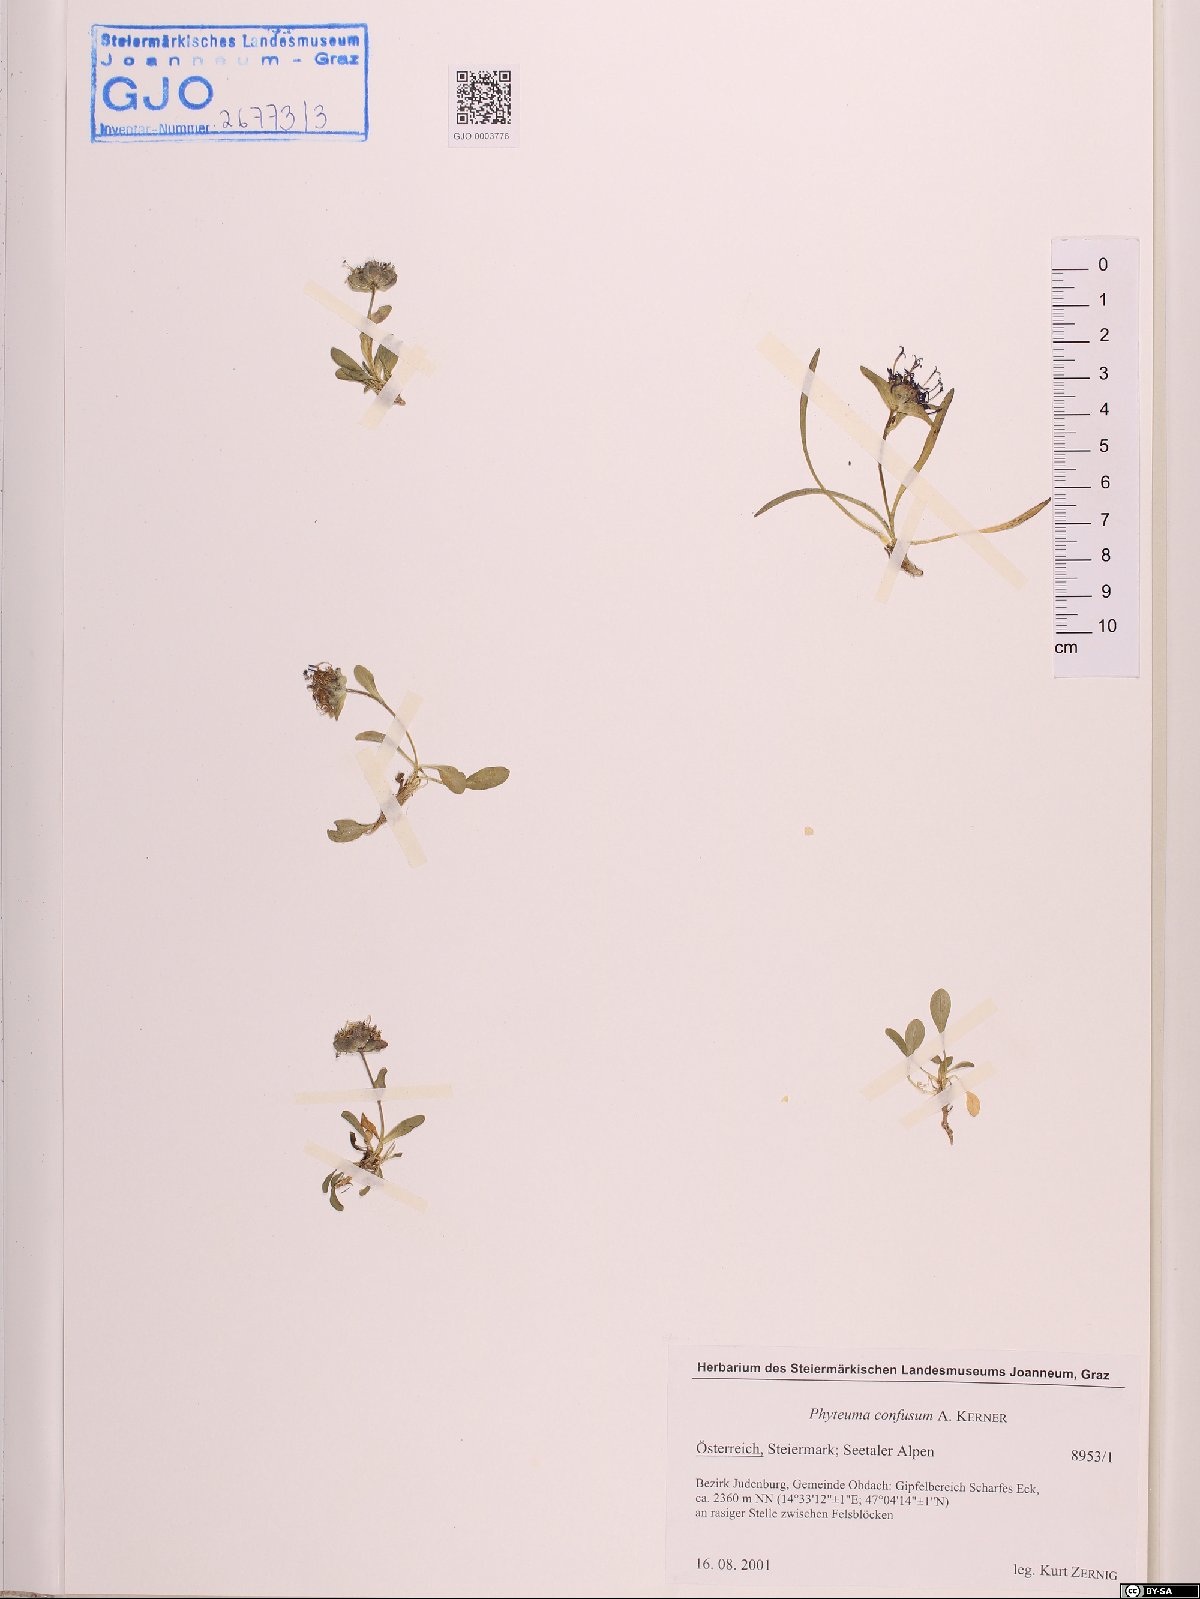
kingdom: Plantae
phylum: Tracheophyta
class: Magnoliopsida
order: Asterales
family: Campanulaceae
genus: Phyteuma
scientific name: Phyteuma confusum
